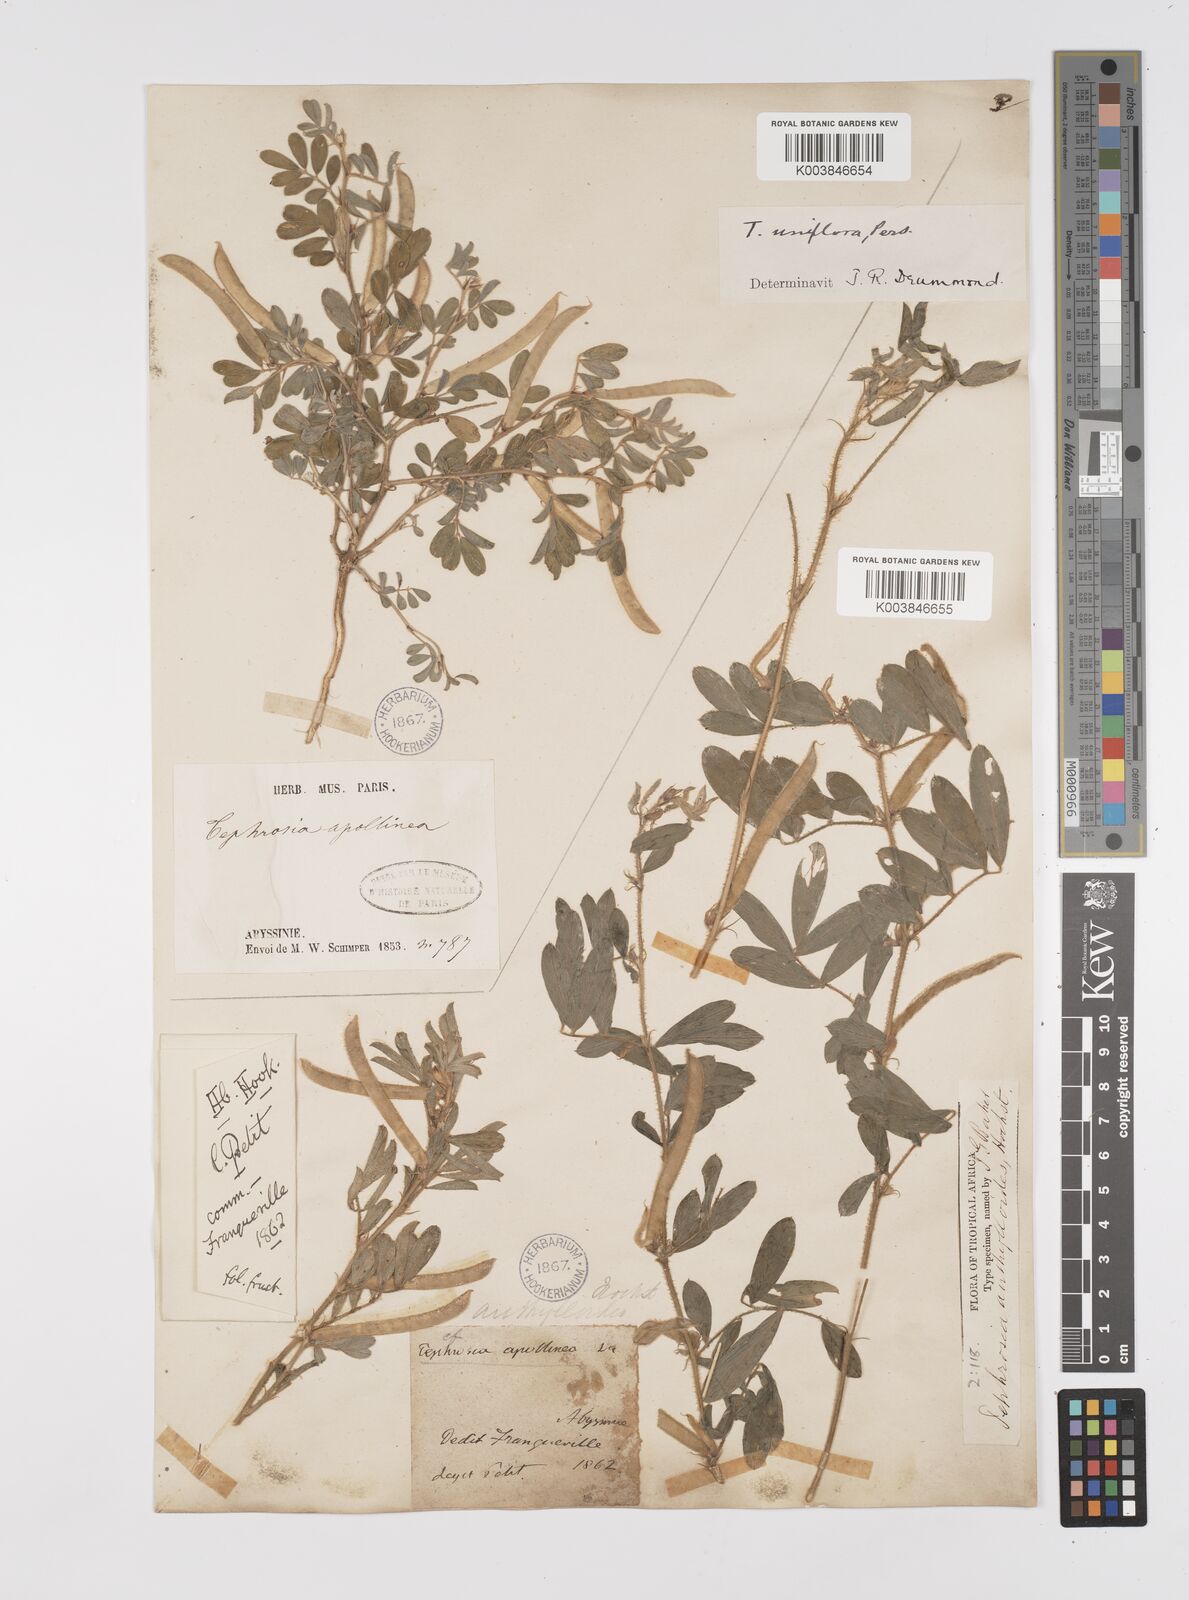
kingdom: Plantae
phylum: Tracheophyta
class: Magnoliopsida
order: Fabales
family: Fabaceae
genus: Tephrosia
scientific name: Tephrosia uniflora
